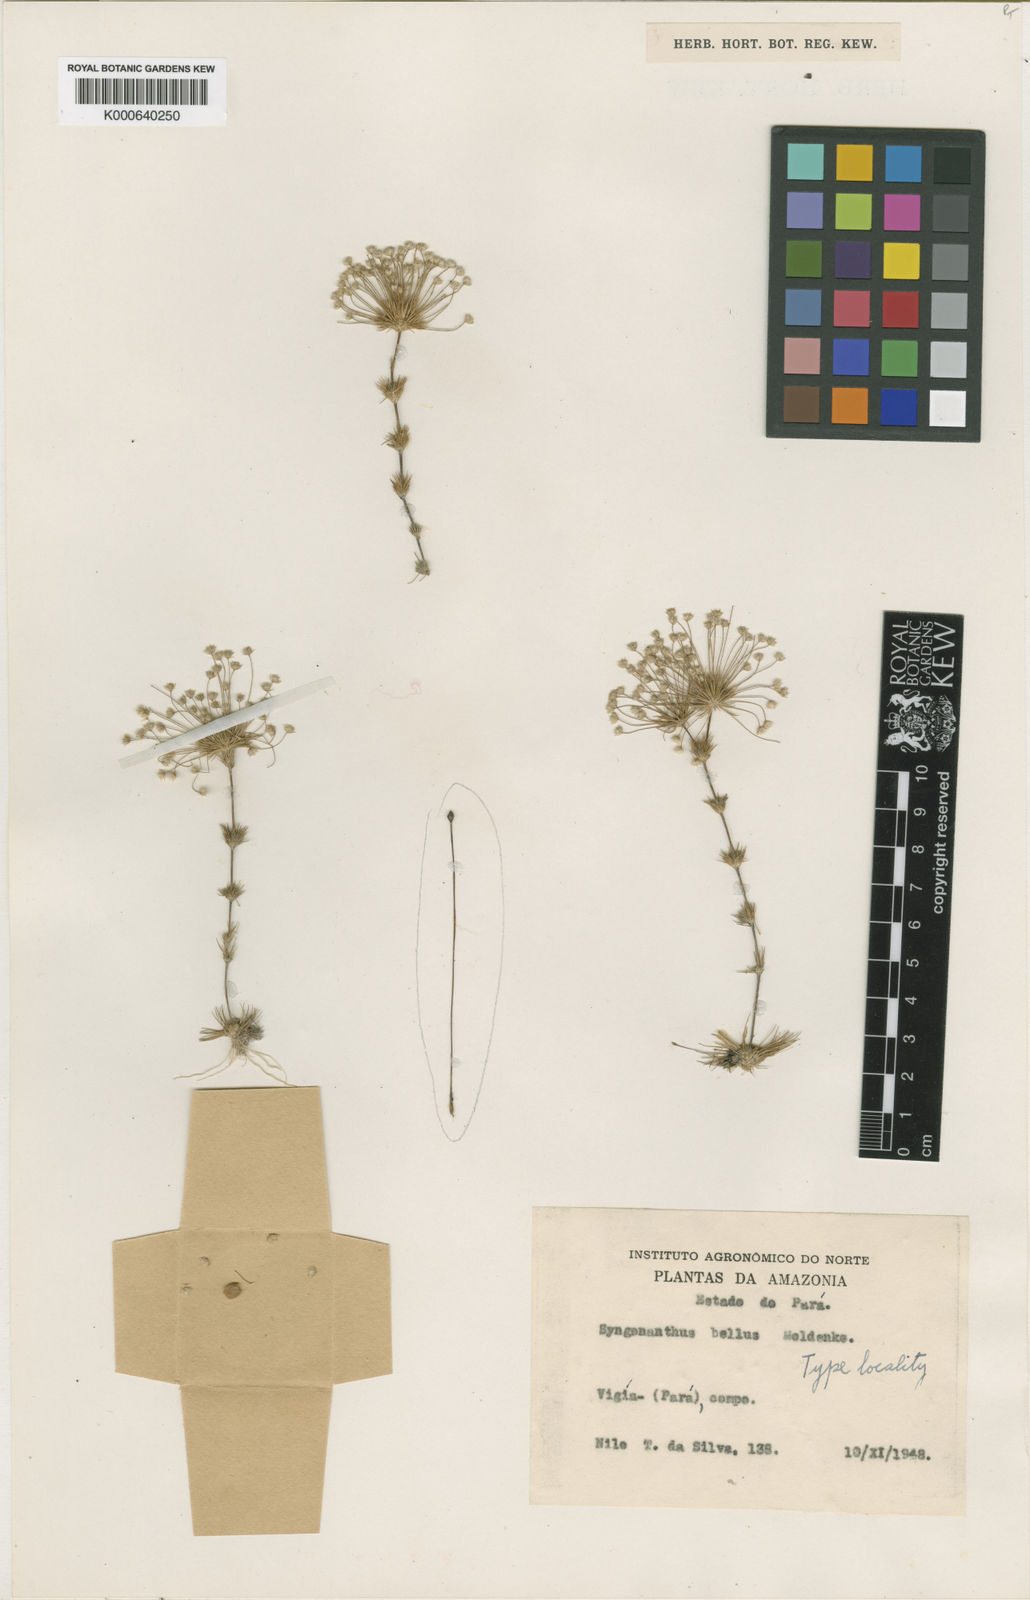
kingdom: Plantae
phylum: Tracheophyta
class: Liliopsida
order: Poales
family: Eriocaulaceae
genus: Syngonanthus
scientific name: Syngonanthus bellus
